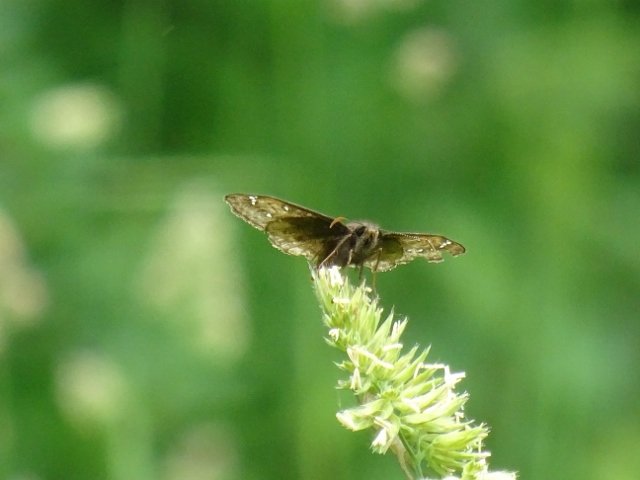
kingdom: Animalia
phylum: Arthropoda
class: Insecta
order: Lepidoptera
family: Hesperiidae
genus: Gesta
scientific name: Gesta
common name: Juvenal's Duskywing
